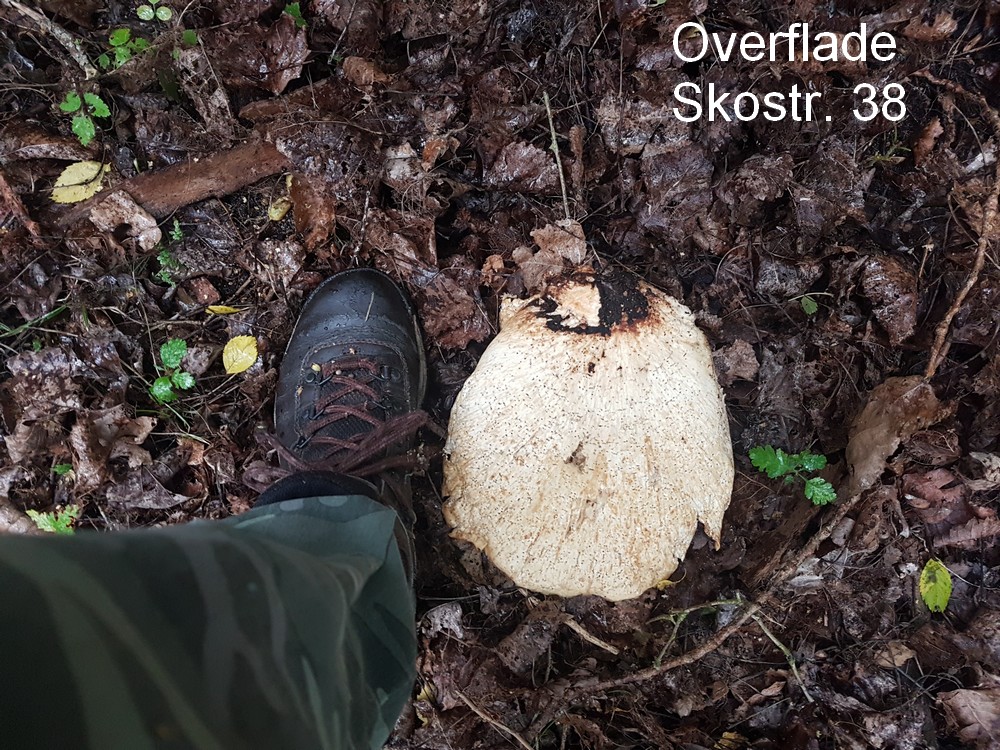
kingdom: Fungi
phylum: Basidiomycota
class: Agaricomycetes
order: Polyporales
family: Polyporaceae
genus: Cerioporus
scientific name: Cerioporus squamosus
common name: skællet stilkporesvamp
